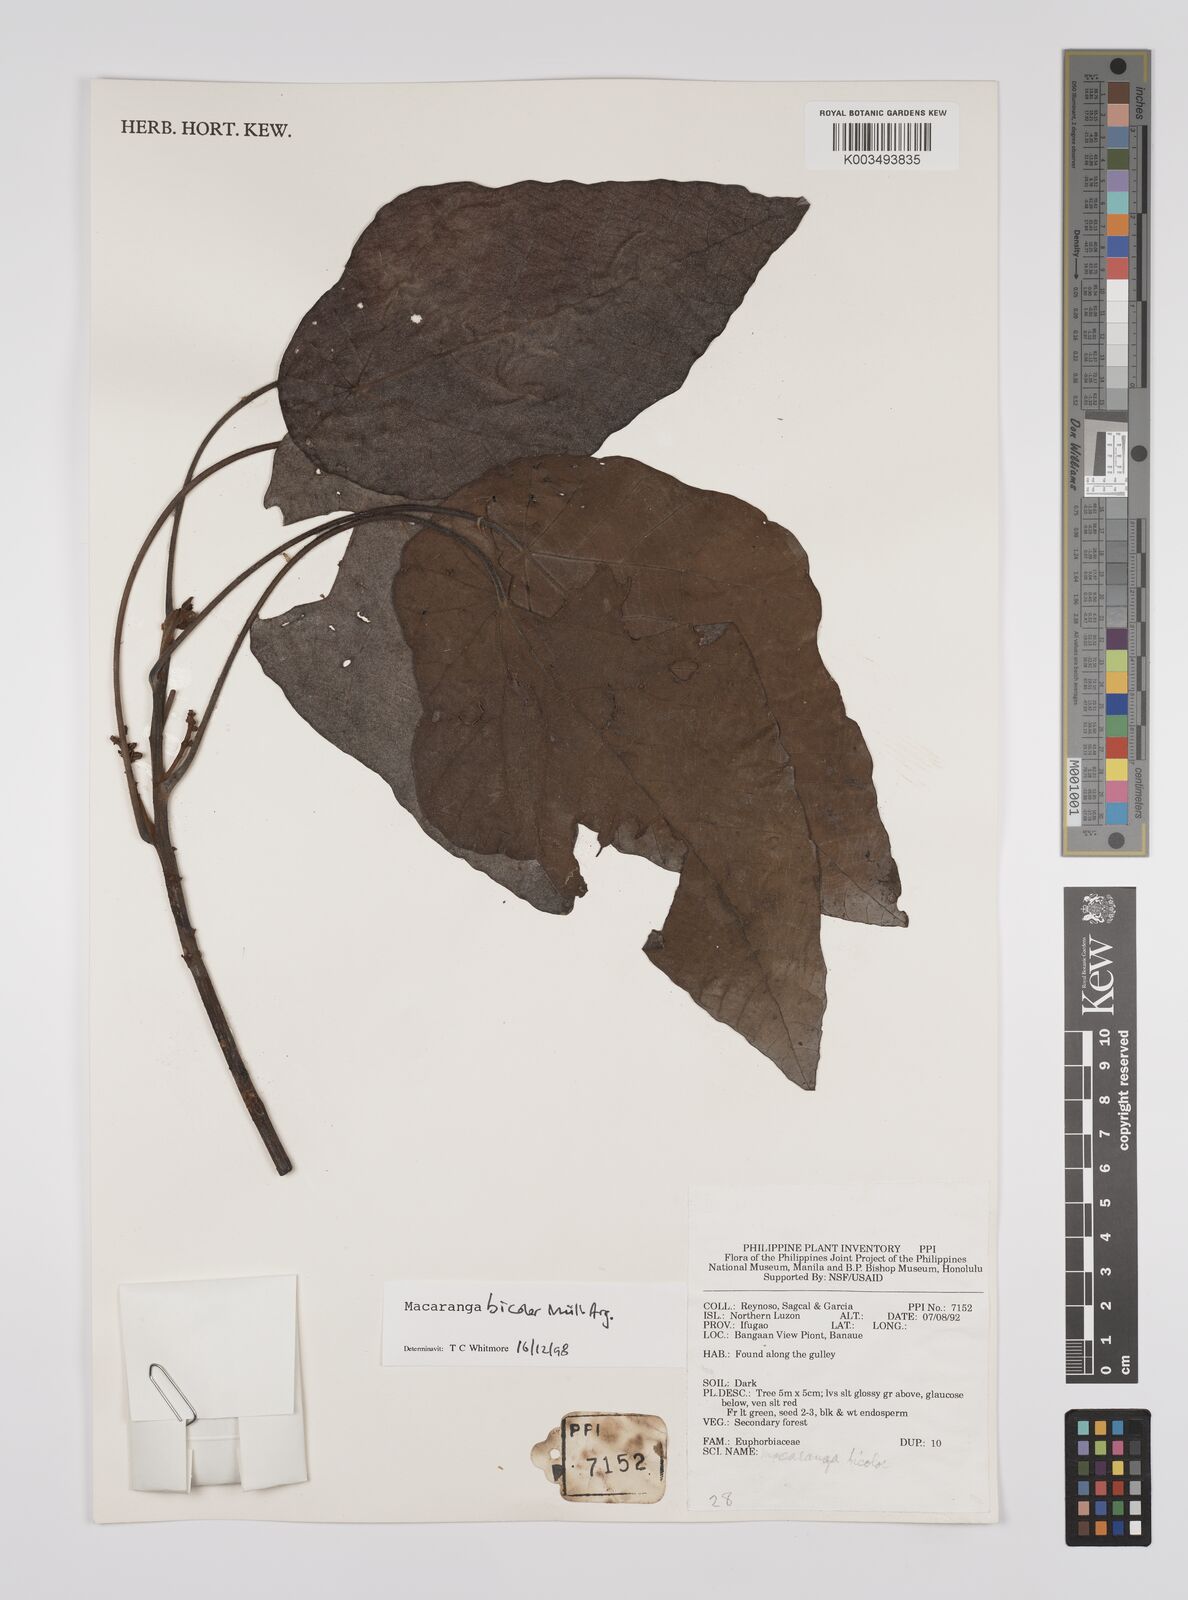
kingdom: Plantae
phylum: Tracheophyta
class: Magnoliopsida
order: Malpighiales
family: Euphorbiaceae
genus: Macaranga
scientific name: Macaranga bicolor
